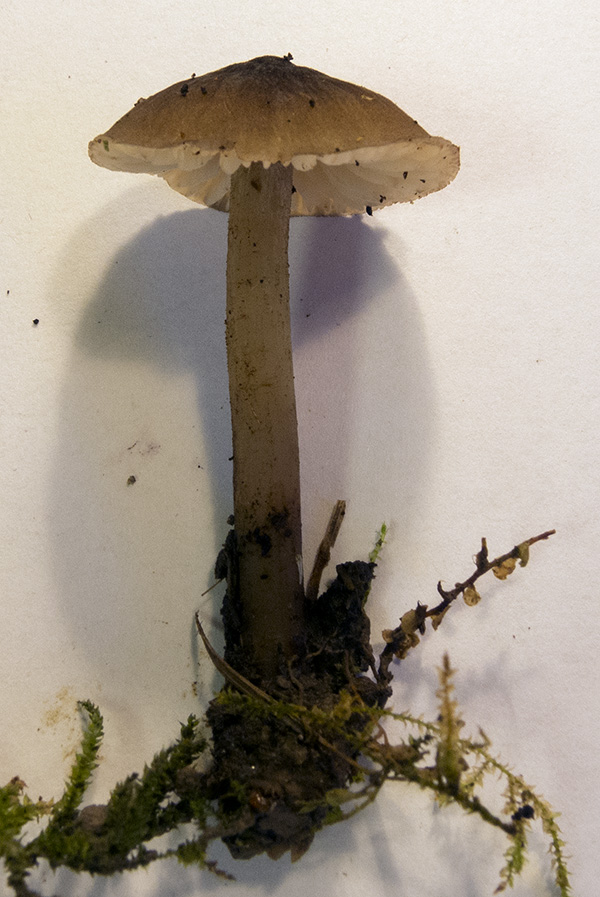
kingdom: Fungi
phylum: Basidiomycota
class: Agaricomycetes
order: Agaricales
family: Mycenaceae
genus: Mycopan
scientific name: Mycopan scabripes
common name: mørk fnugfod
